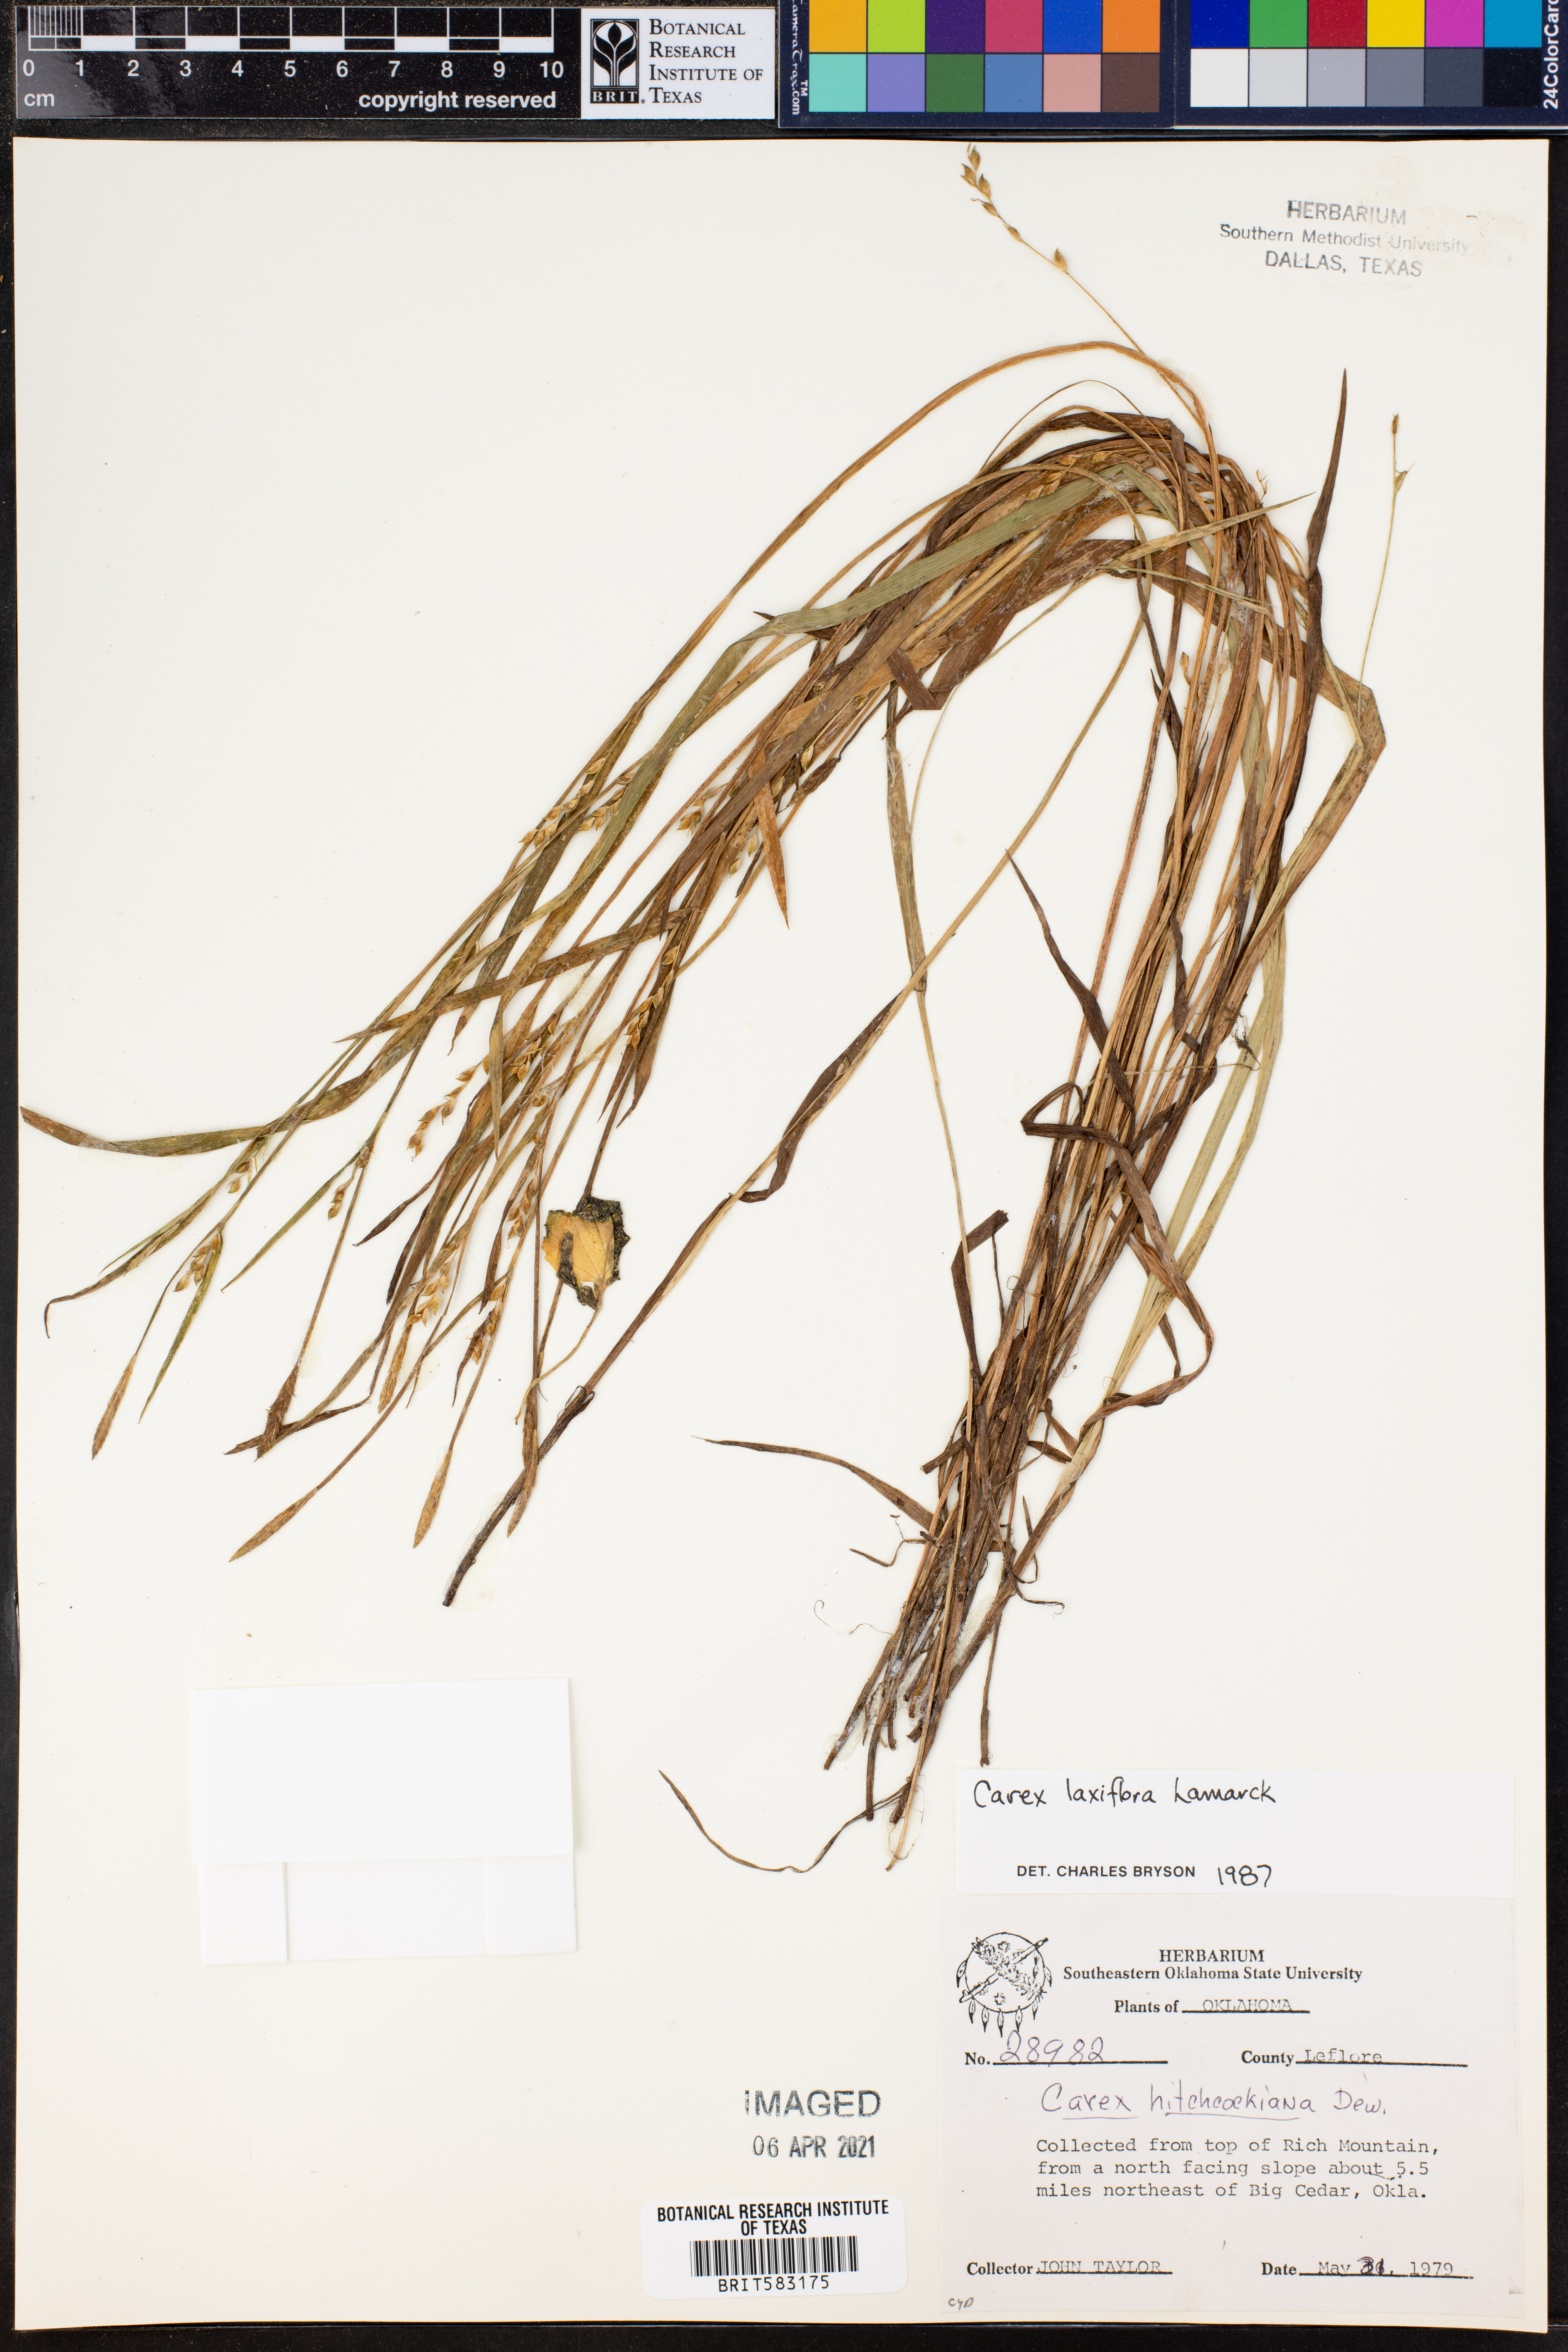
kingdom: Plantae
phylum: Tracheophyta
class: Liliopsida
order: Poales
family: Cyperaceae
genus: Carex
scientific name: Carex laxiflora
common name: Beech wood sedge
